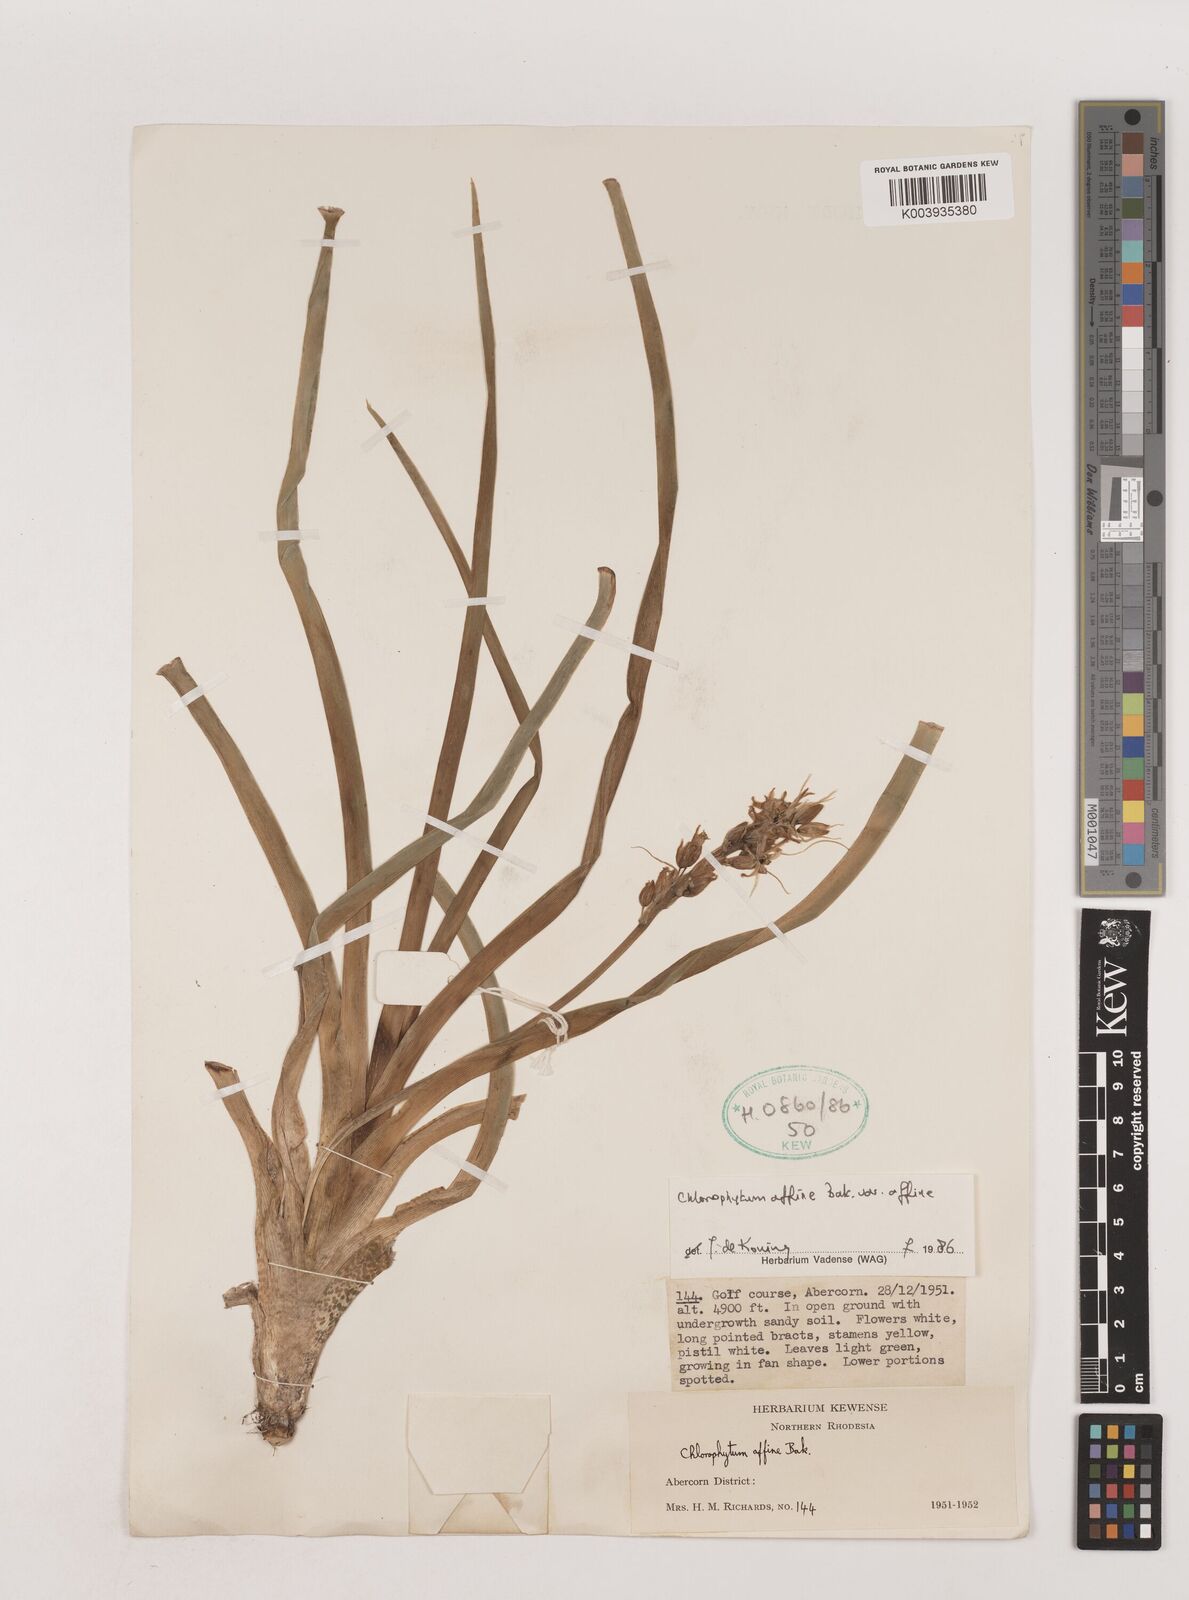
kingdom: Plantae
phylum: Tracheophyta
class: Liliopsida
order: Asparagales
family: Asparagaceae
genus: Chlorophytum
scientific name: Chlorophytum affine
